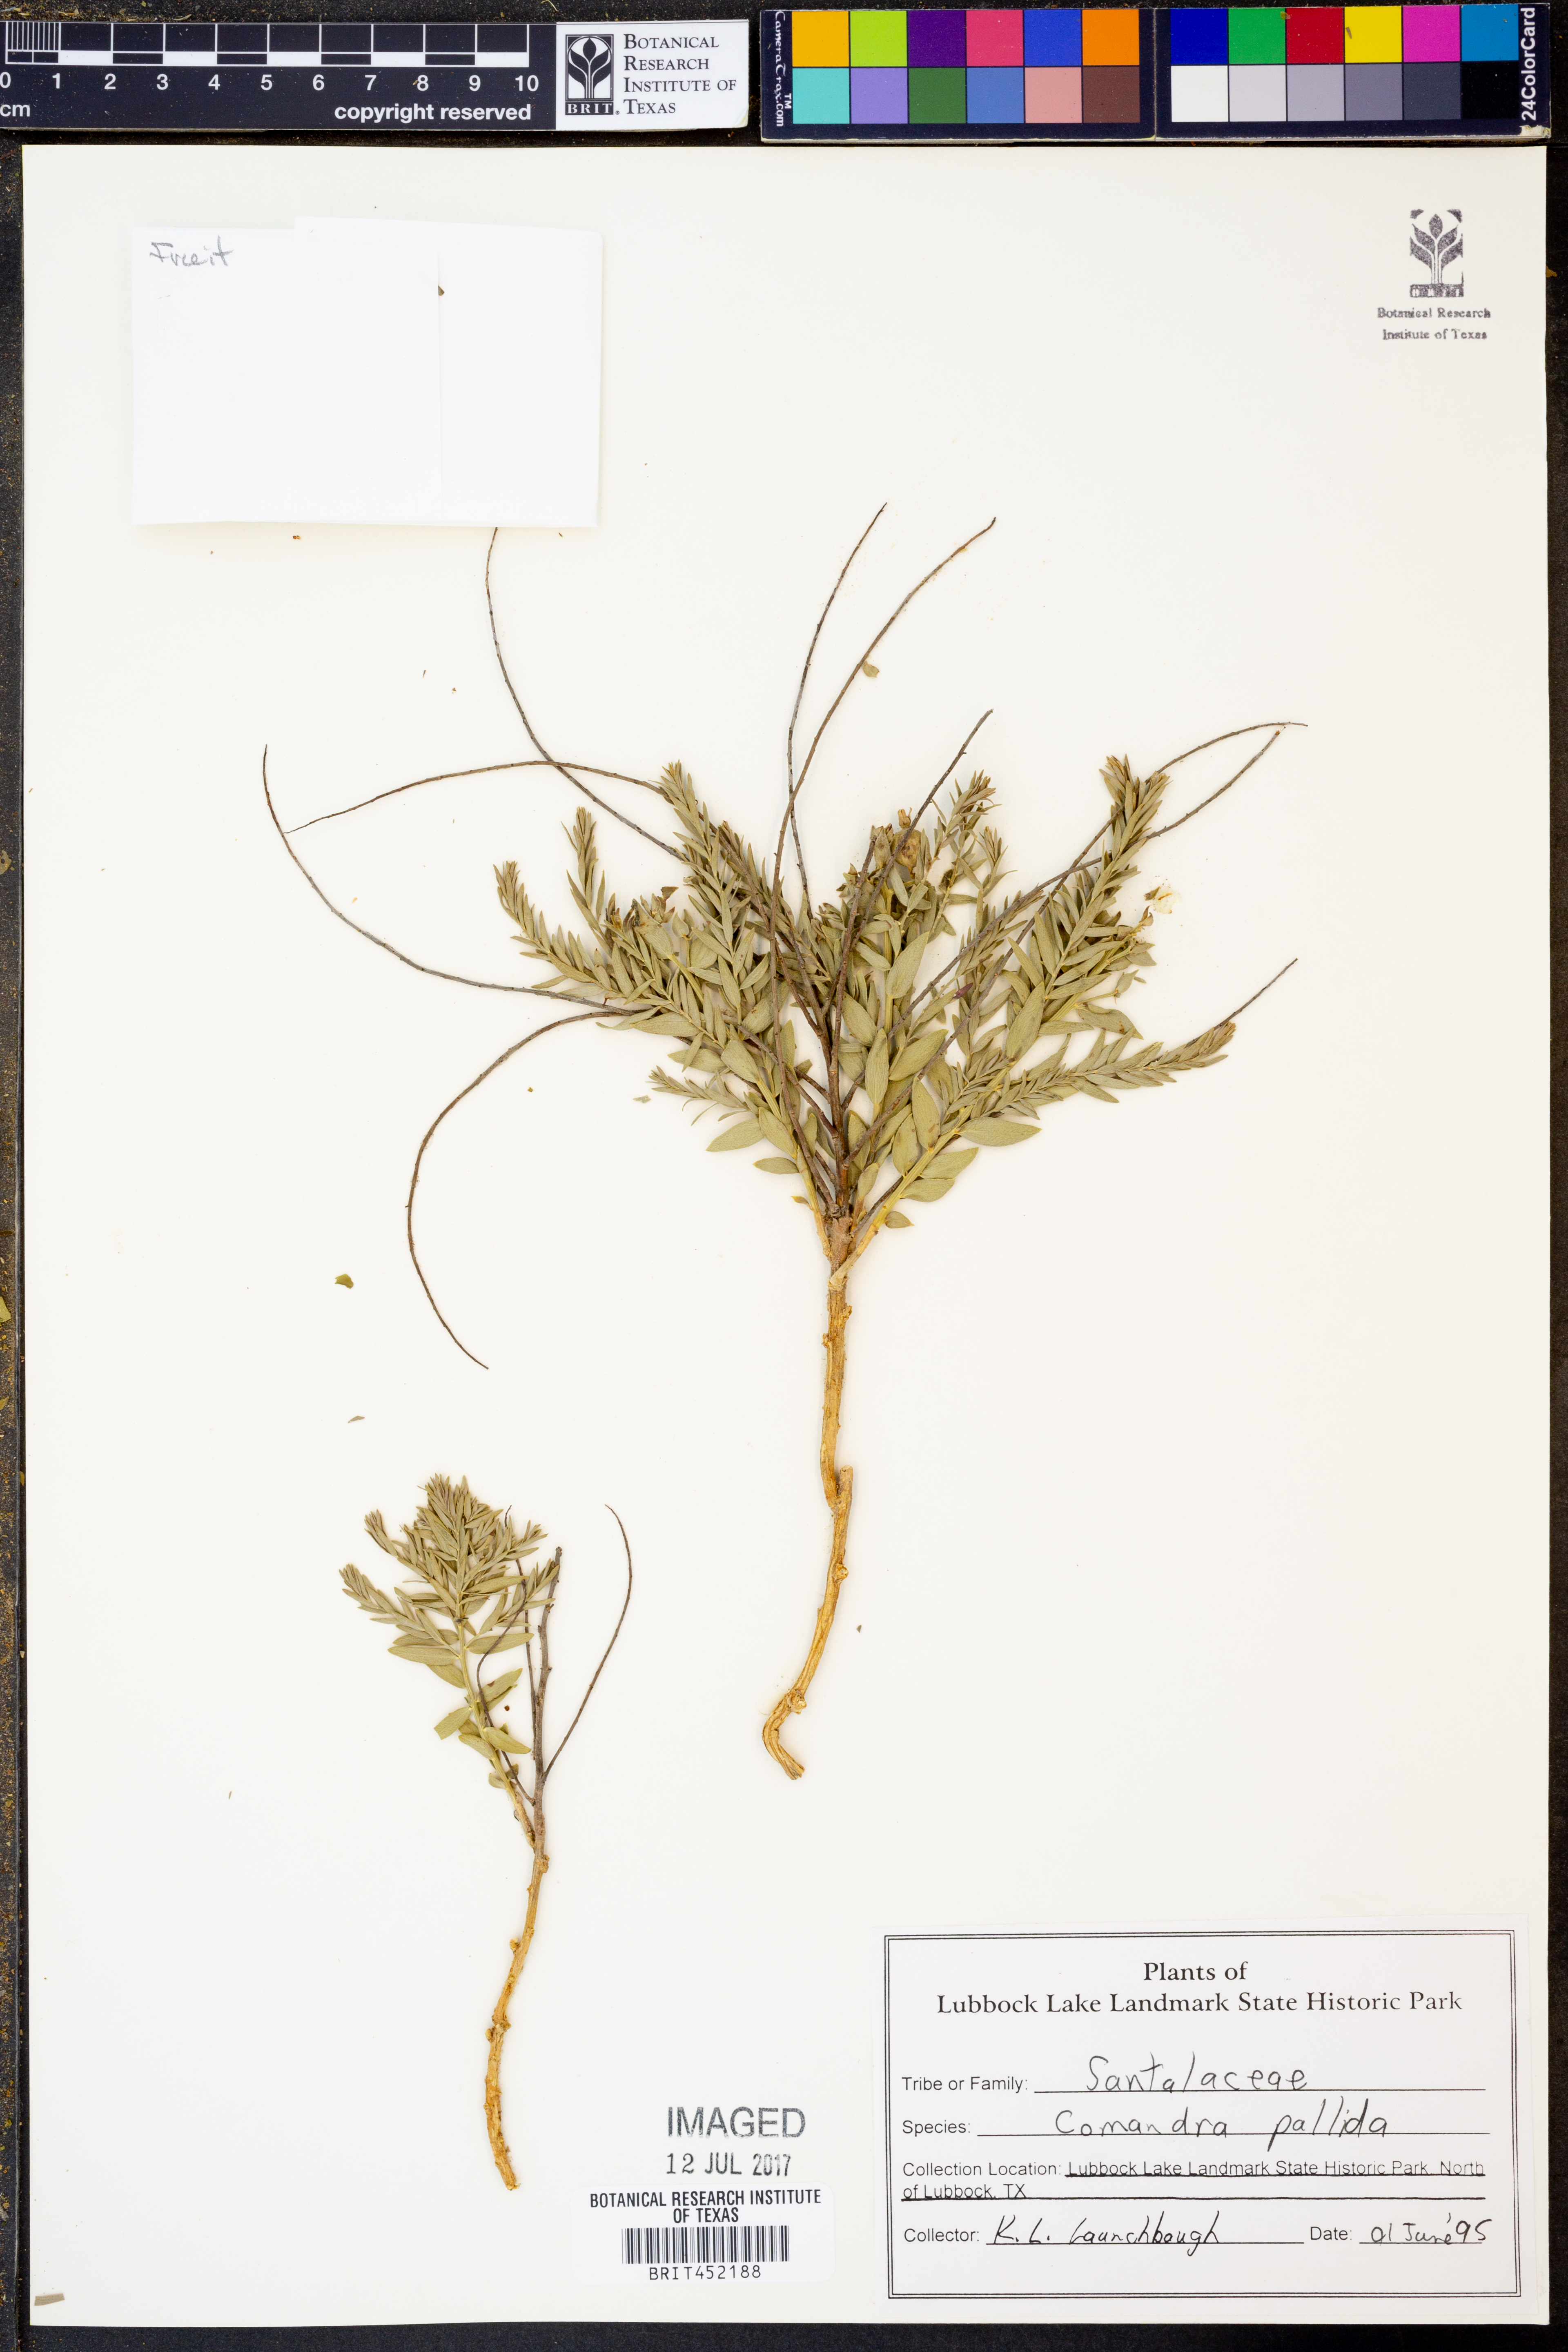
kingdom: Plantae
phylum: Tracheophyta
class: Magnoliopsida
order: Santalales
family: Comandraceae
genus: Comandra
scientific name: Comandra umbellata
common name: Bastard toadflax
